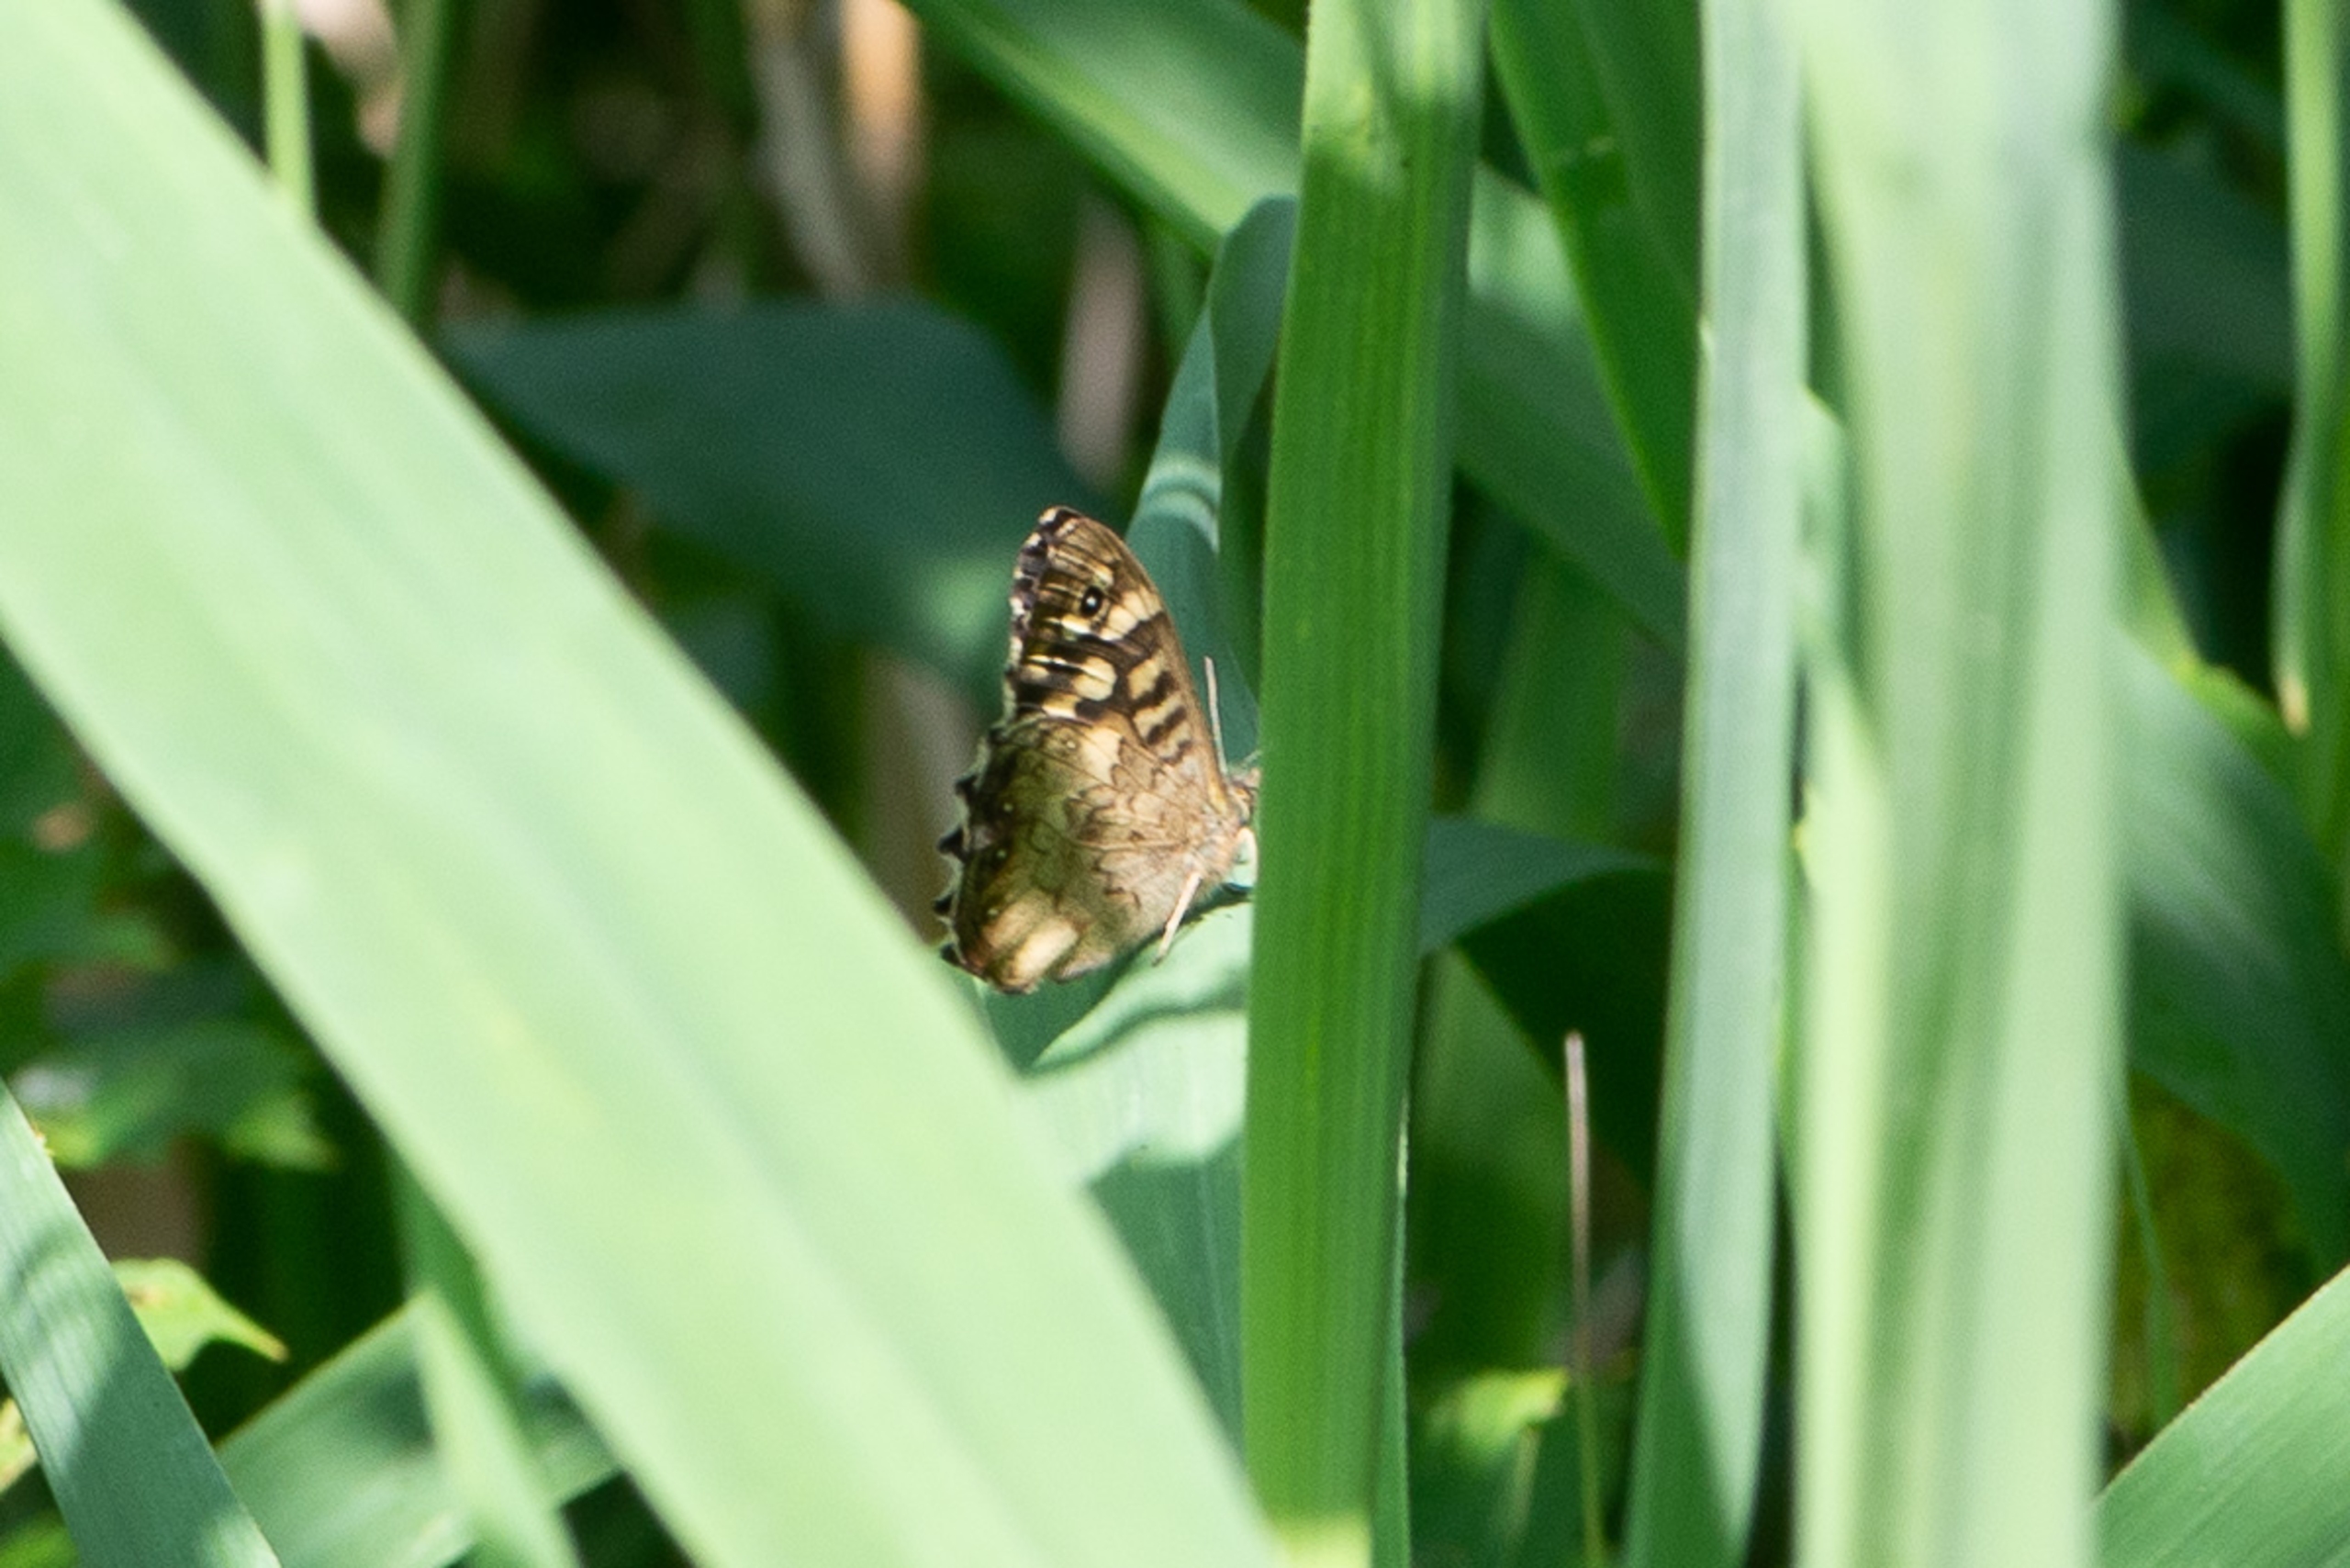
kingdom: Animalia
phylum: Arthropoda
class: Insecta
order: Lepidoptera
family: Nymphalidae
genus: Pararge
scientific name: Pararge aegeria
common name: Skovrandøje
